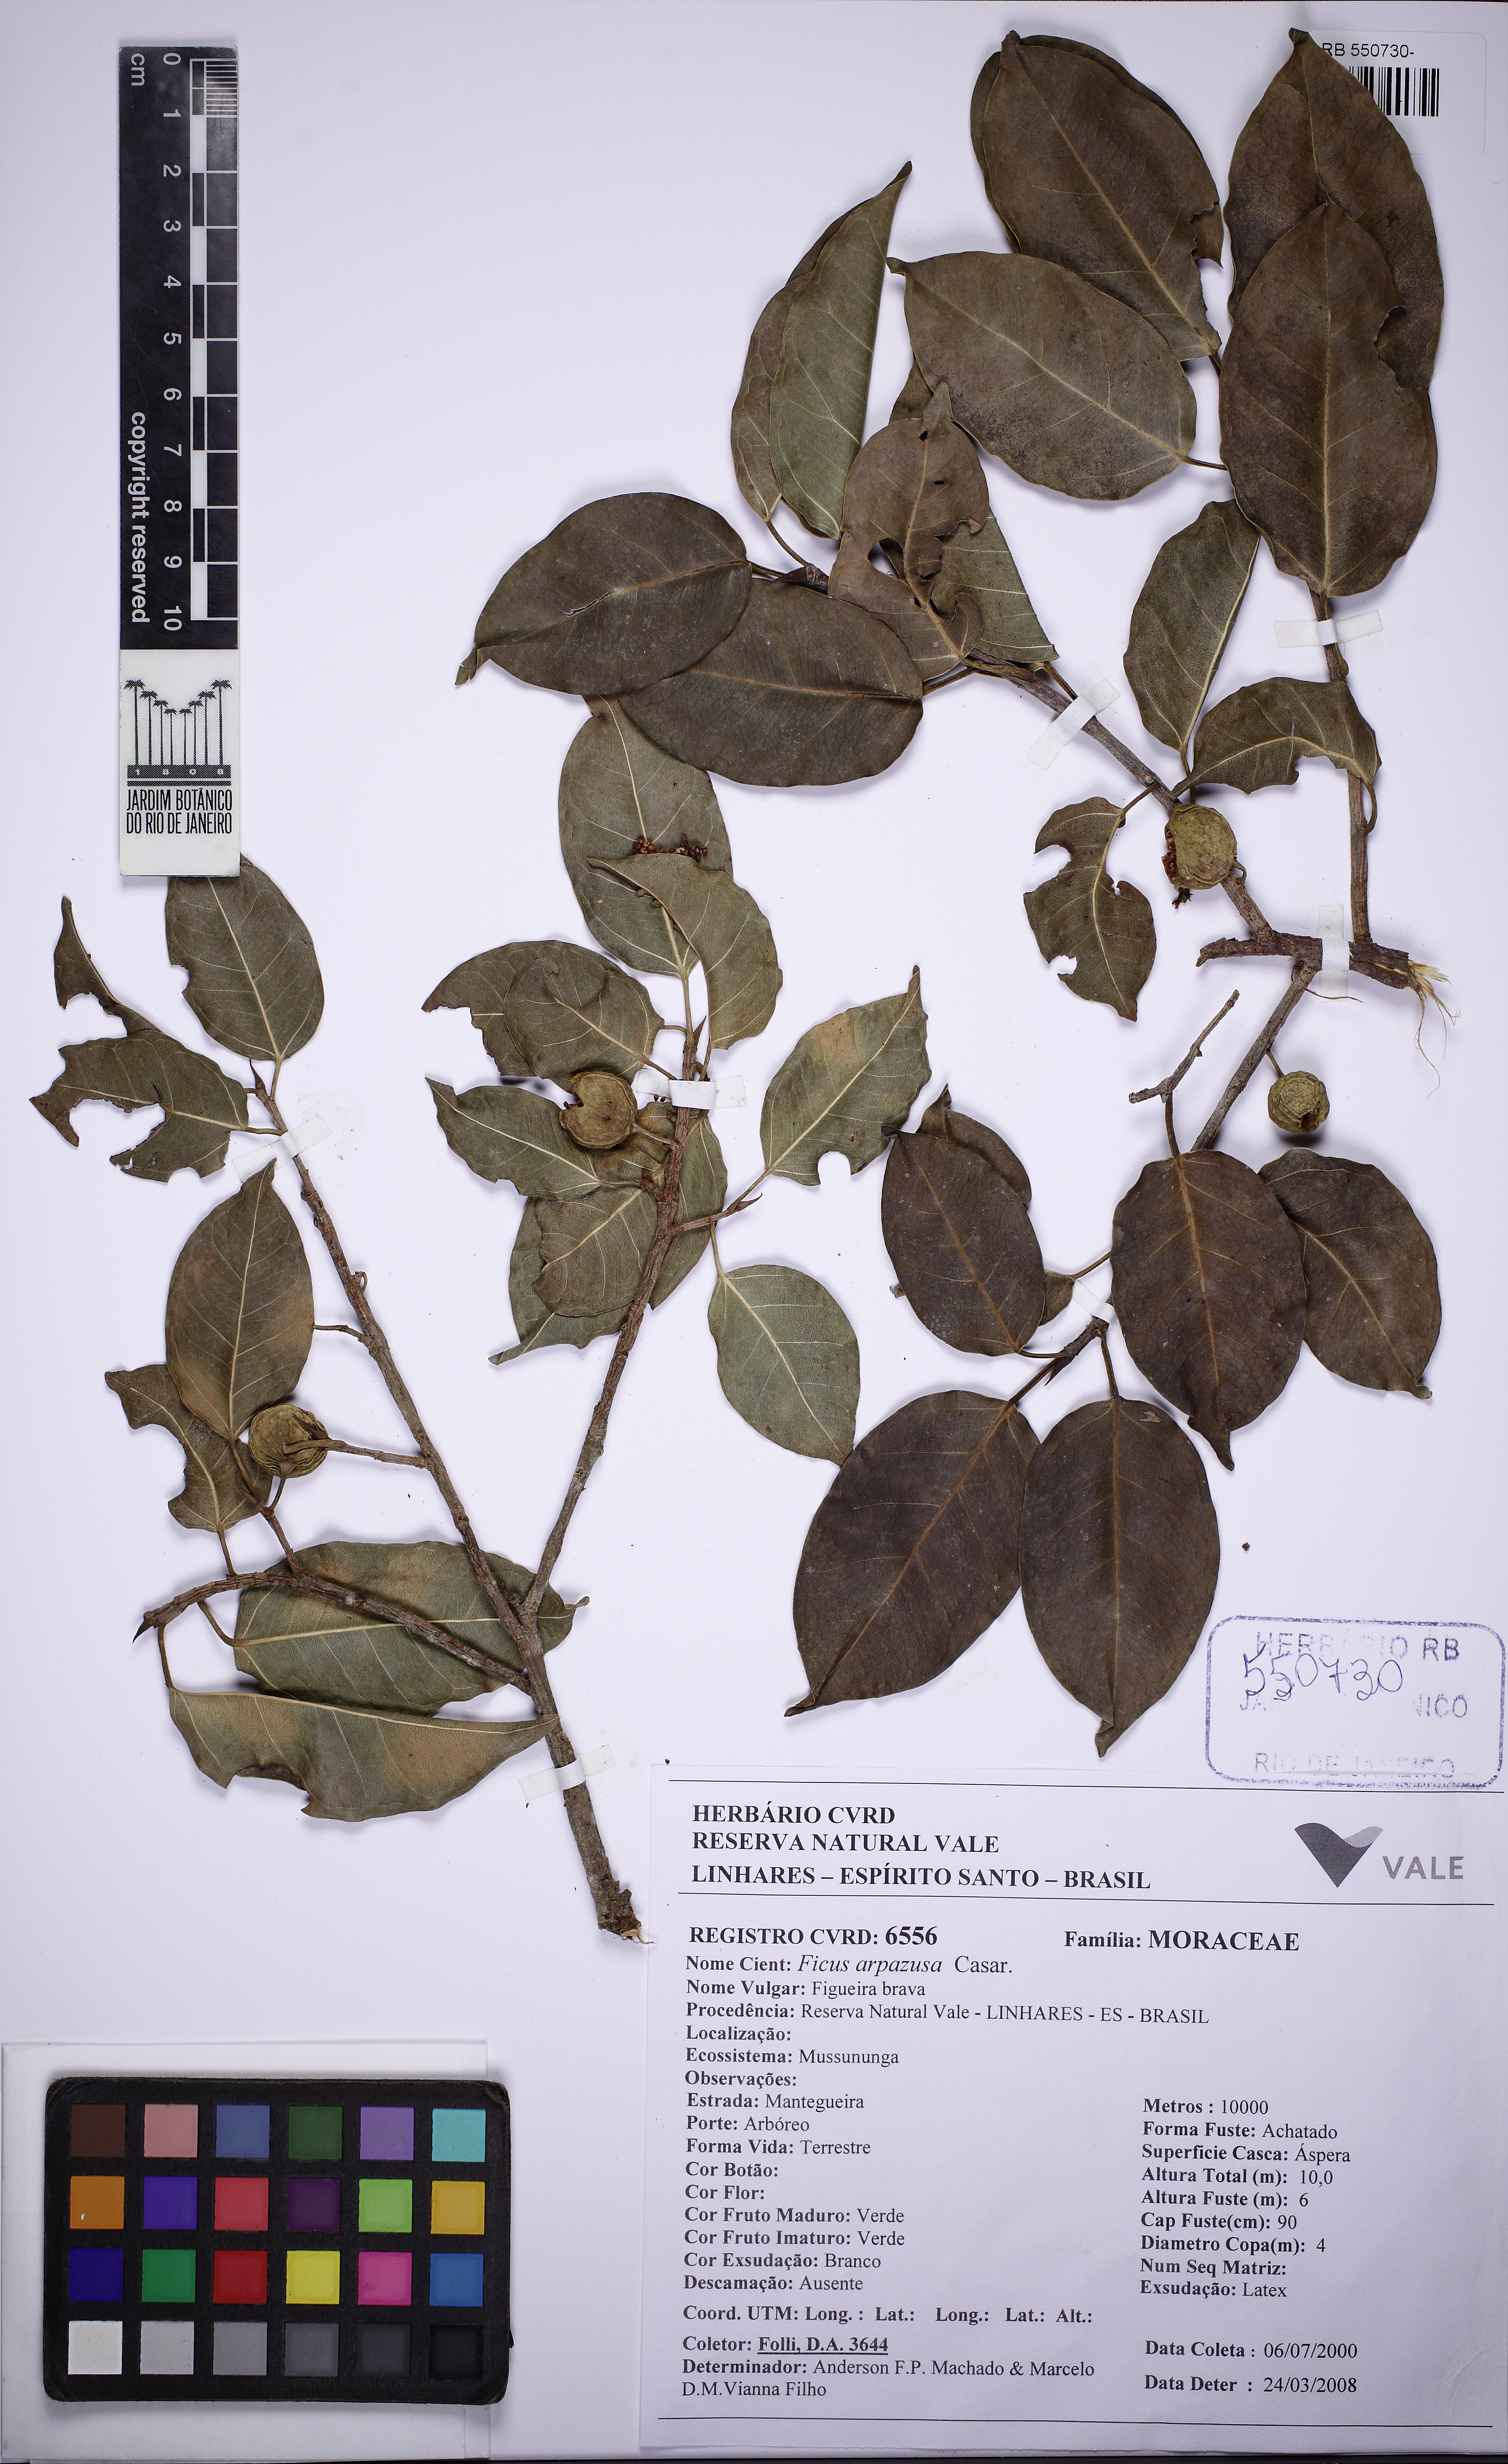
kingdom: Plantae
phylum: Tracheophyta
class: Magnoliopsida
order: Rosales
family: Moraceae
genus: Ficus
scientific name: Ficus arpazusa
